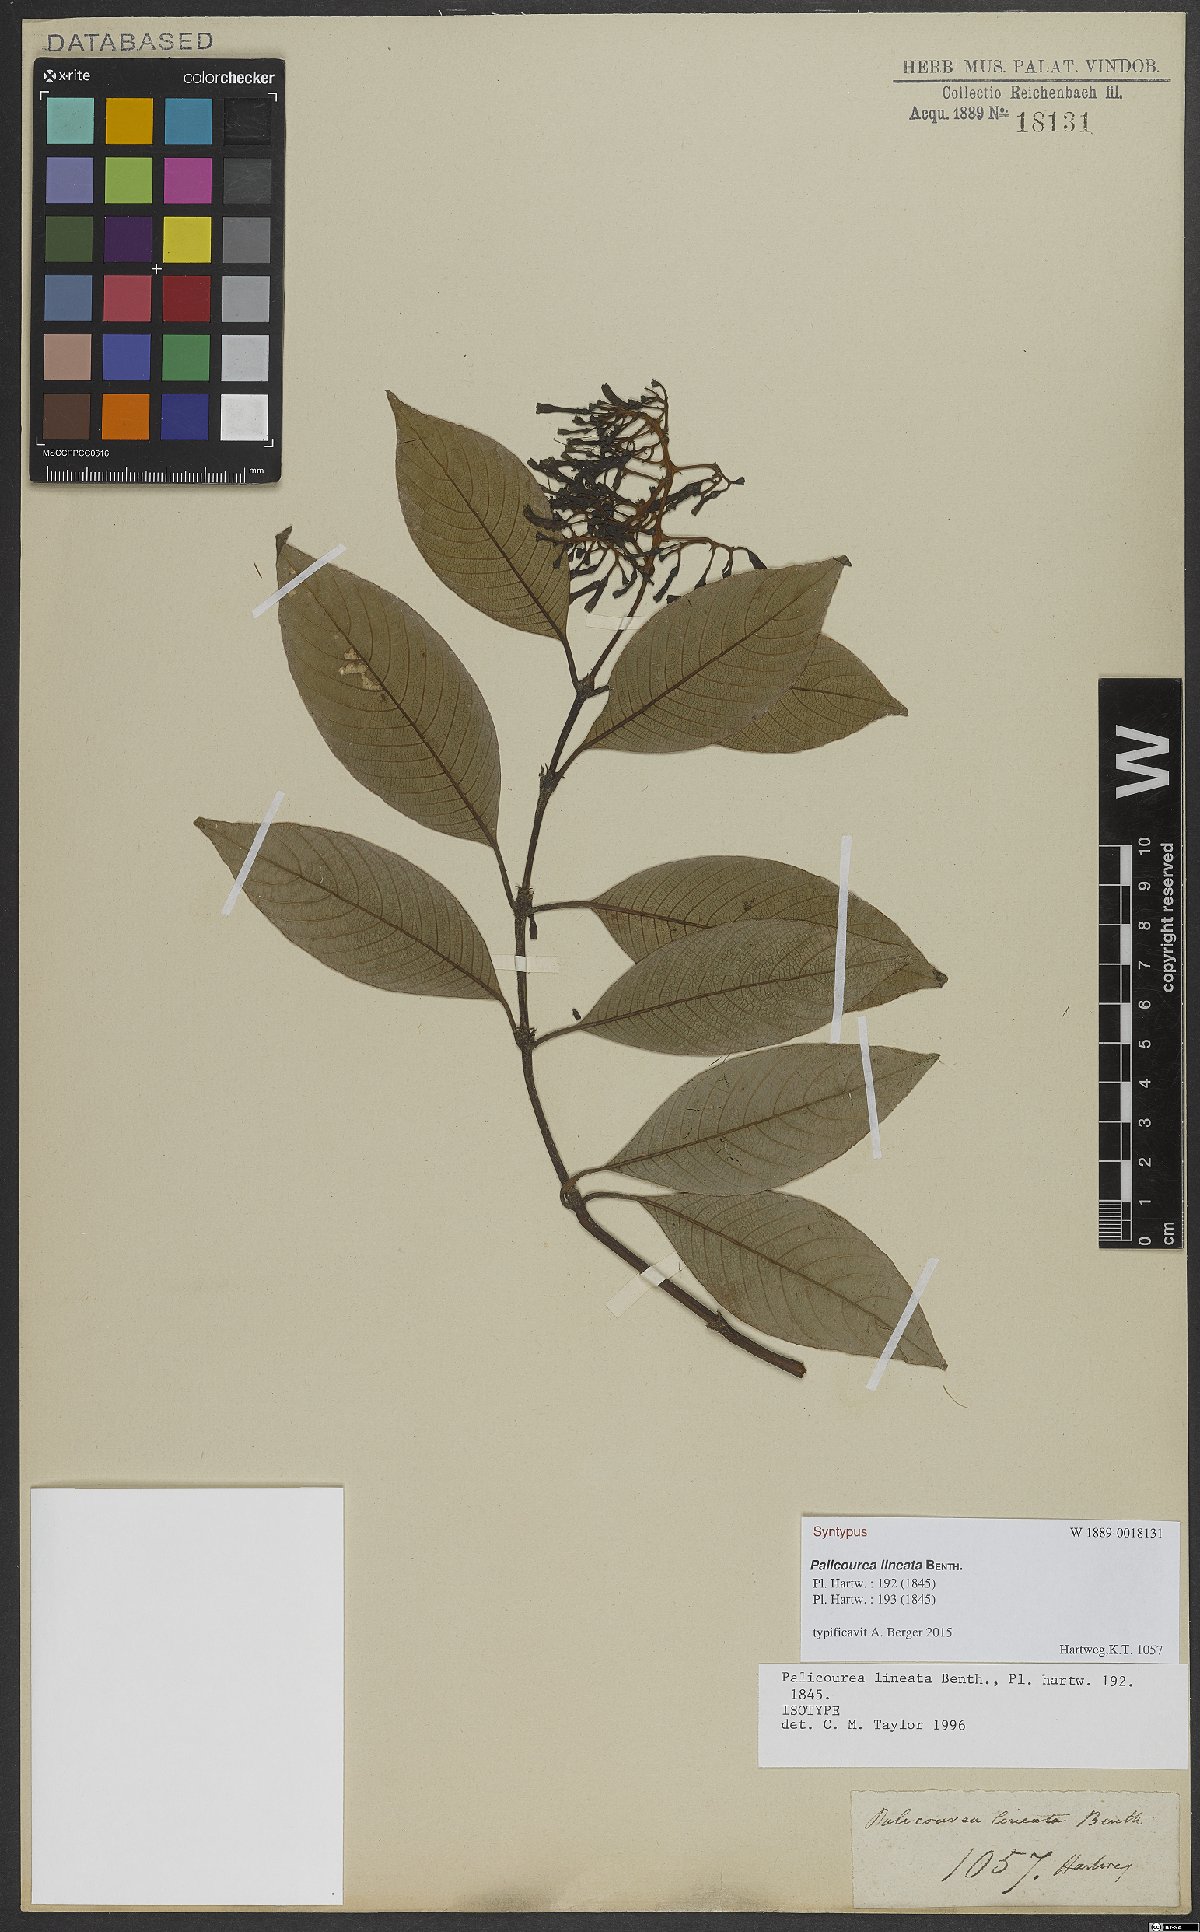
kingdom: Plantae
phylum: Tracheophyta
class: Magnoliopsida
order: Gentianales
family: Rubiaceae
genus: Palicourea
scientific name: Palicourea lineata
